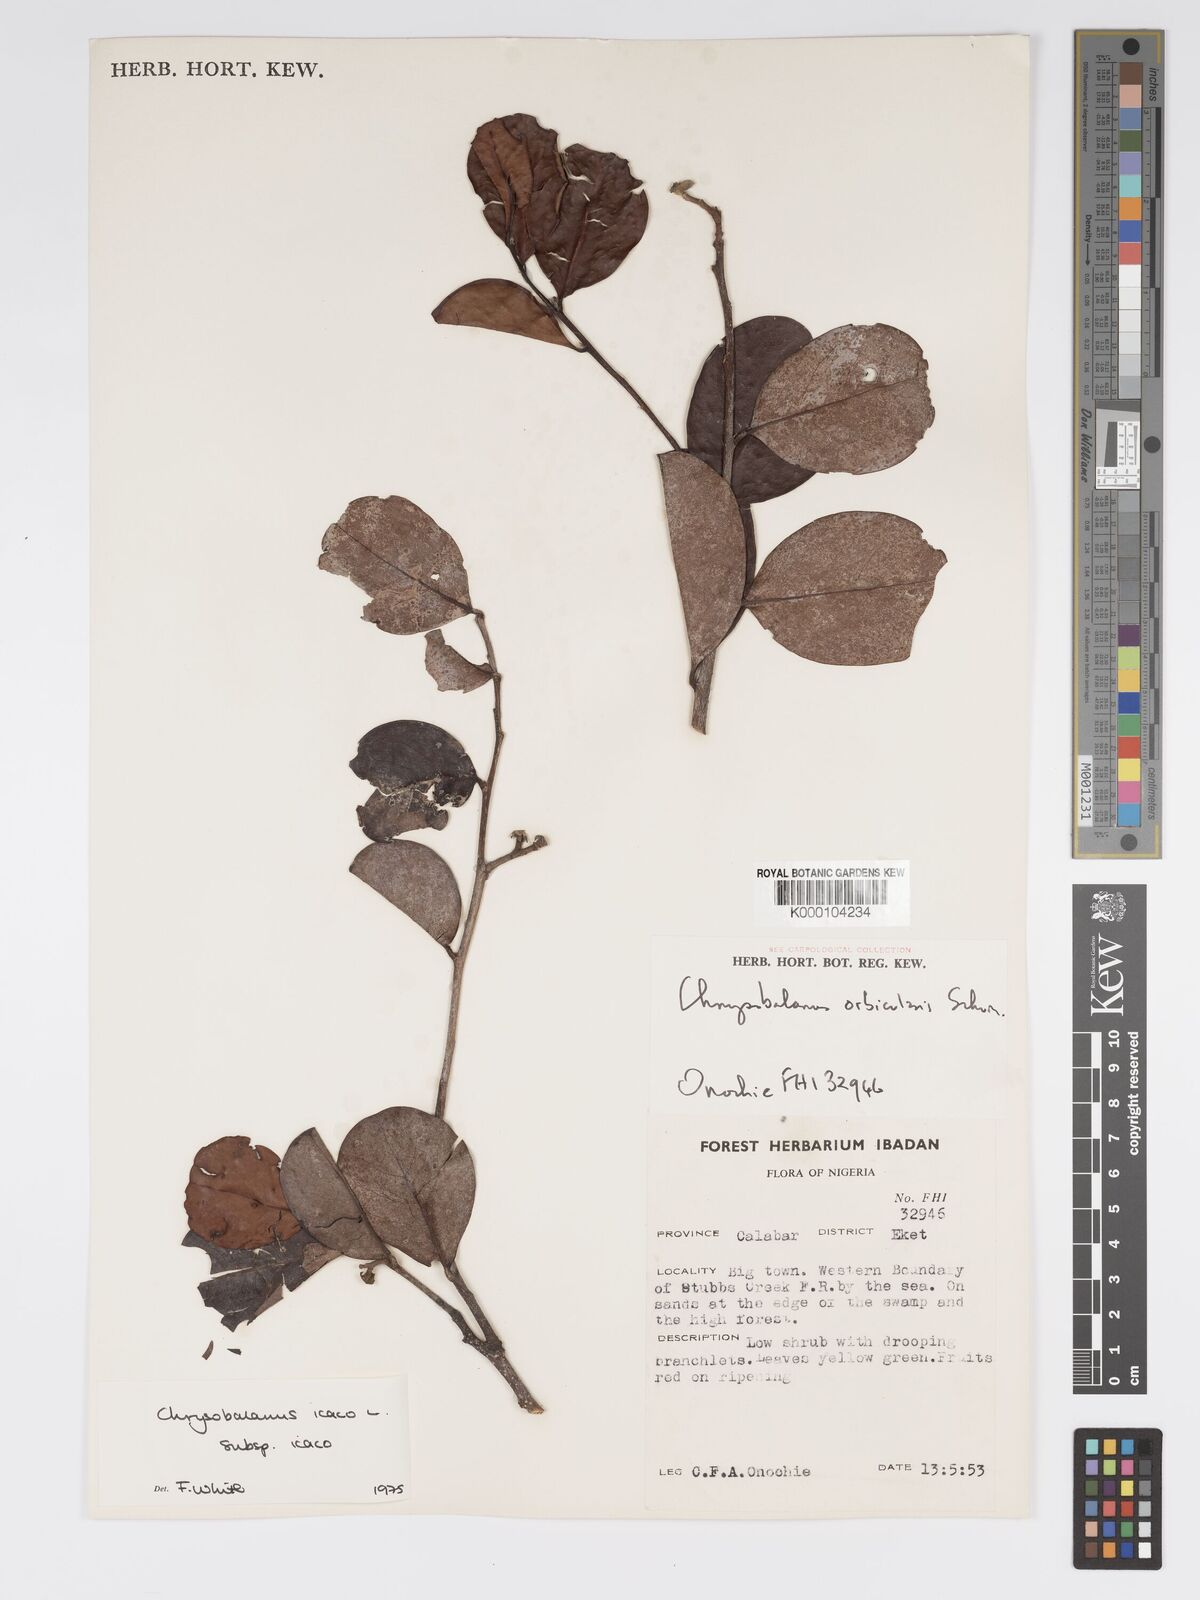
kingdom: Plantae
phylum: Tracheophyta
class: Magnoliopsida
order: Malpighiales
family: Chrysobalanaceae
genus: Chrysobalanus
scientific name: Chrysobalanus icaco
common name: Coco plum
